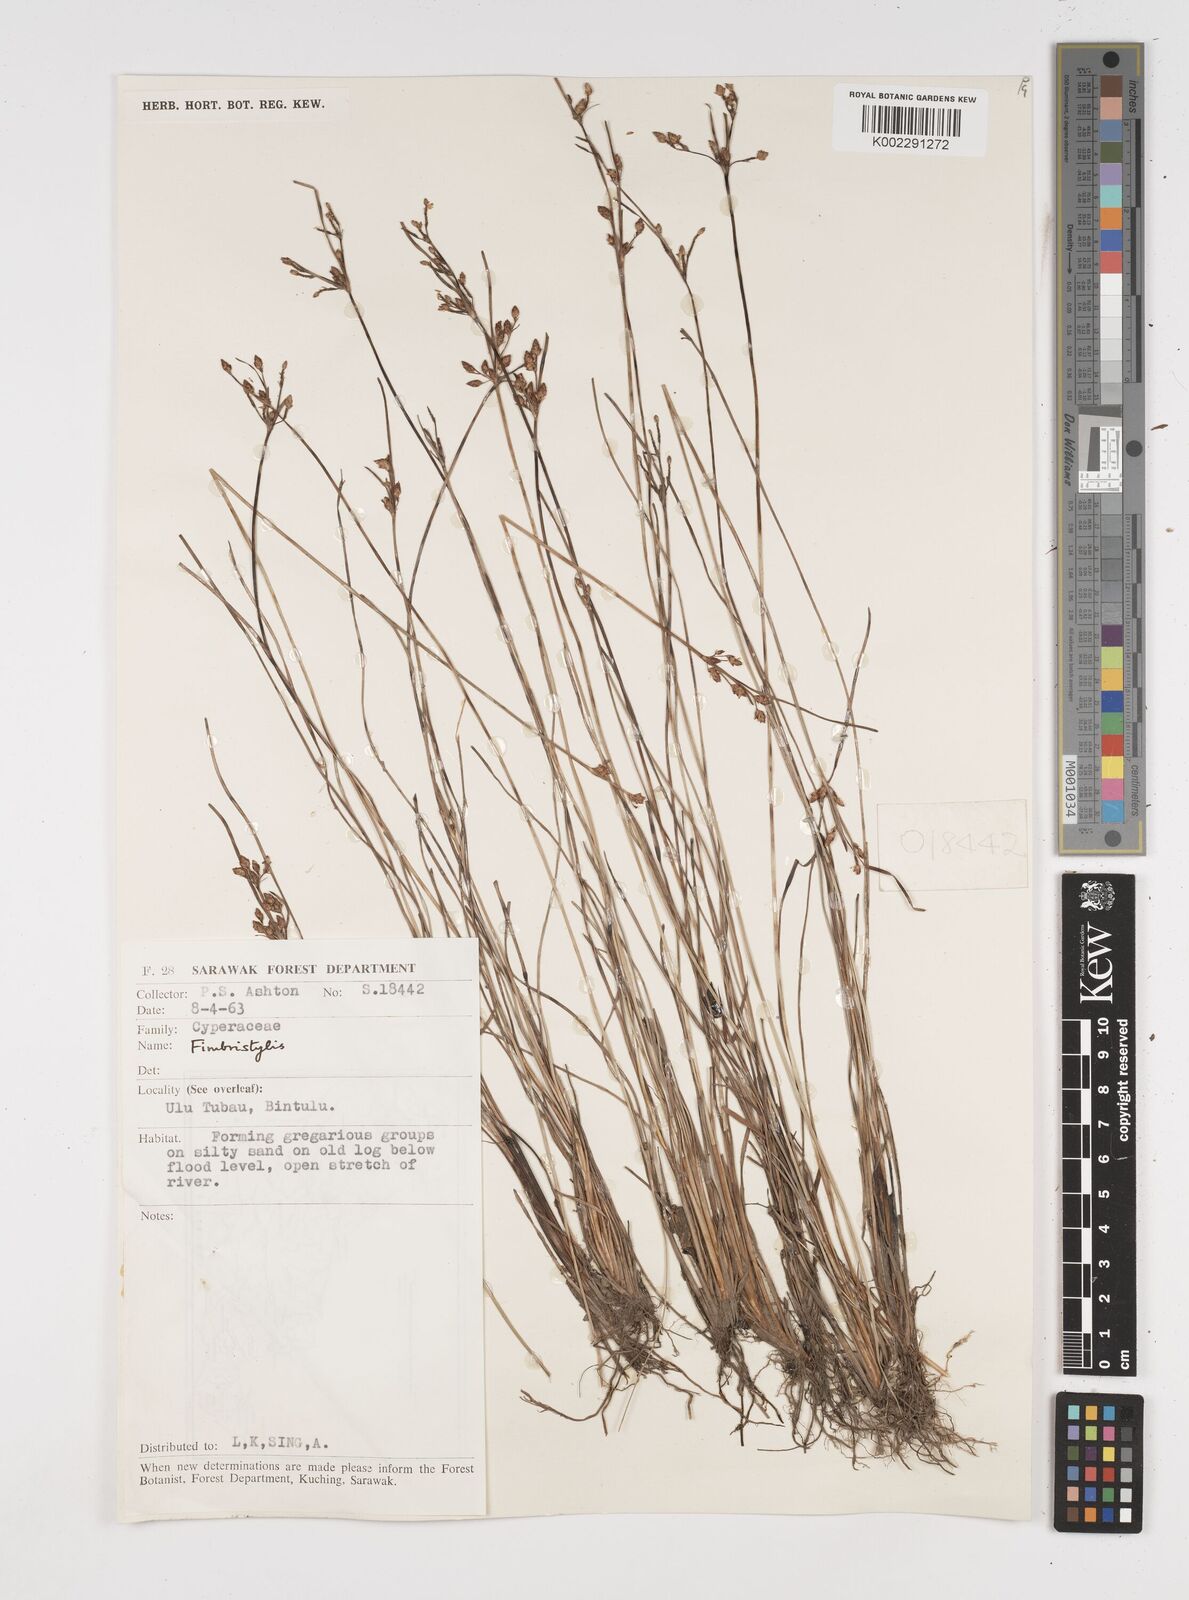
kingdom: Plantae
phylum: Tracheophyta
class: Liliopsida
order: Poales
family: Cyperaceae
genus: Fimbristylis
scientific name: Fimbristylis
